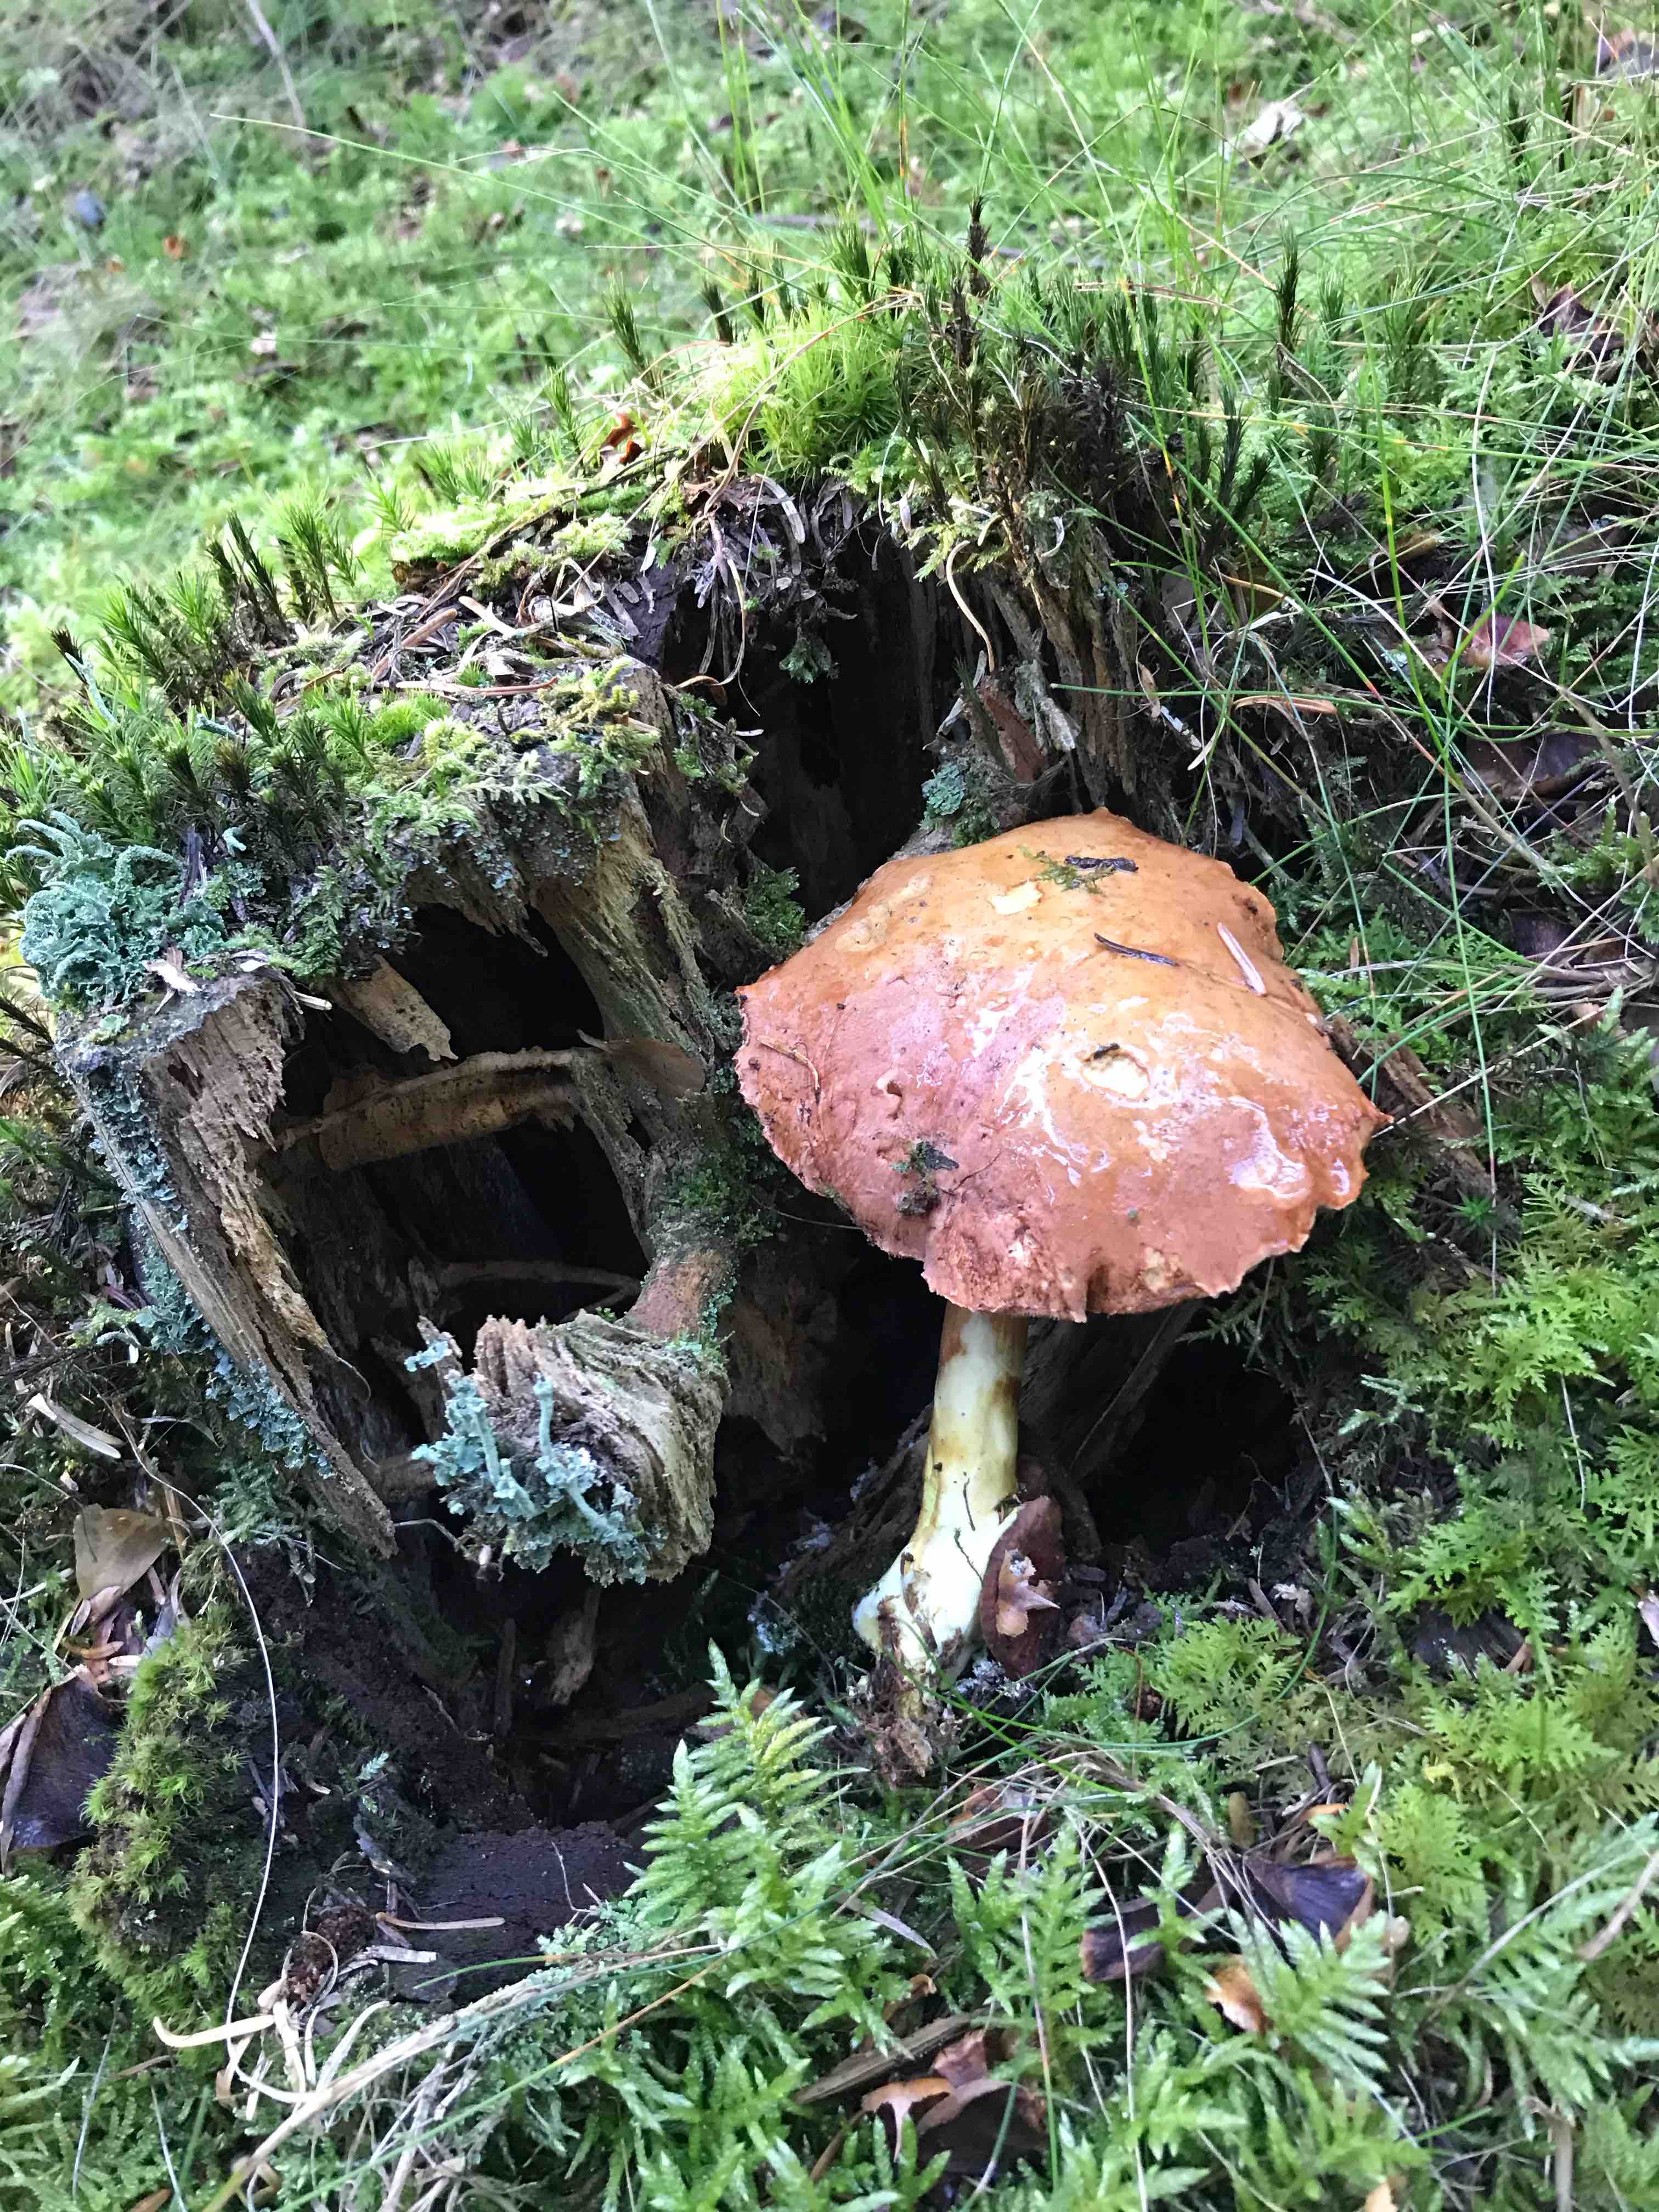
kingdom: Fungi
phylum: Basidiomycota
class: Agaricomycetes
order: Boletales
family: Boletaceae
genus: Chalciporus
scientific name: Chalciporus piperatus
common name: peberrørhat
